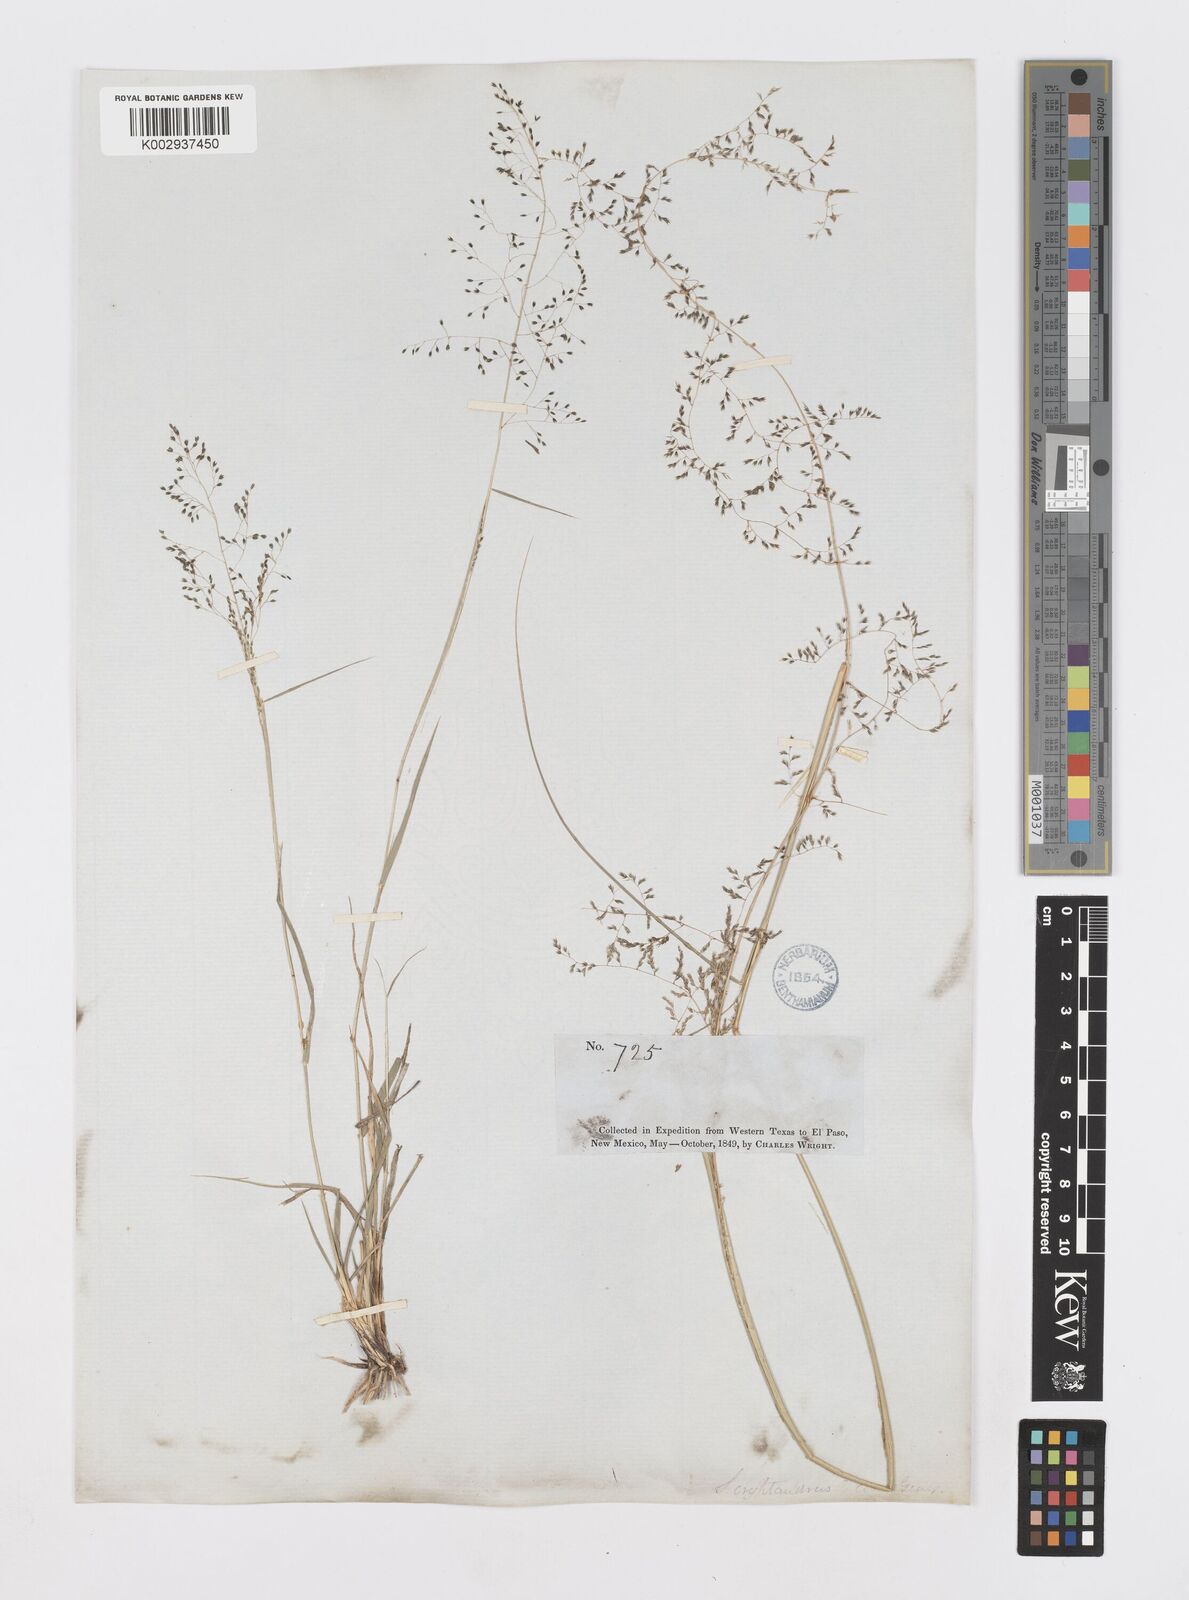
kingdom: Plantae
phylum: Tracheophyta
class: Liliopsida
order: Poales
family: Poaceae
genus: Sporobolus
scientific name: Sporobolus flexuosus
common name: Mesa dropseed
